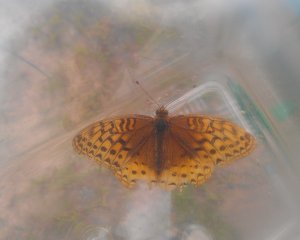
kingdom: Animalia
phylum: Arthropoda
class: Insecta
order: Lepidoptera
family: Nymphalidae
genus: Speyeria
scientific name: Speyeria cybele
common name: Great Spangled Fritillary
